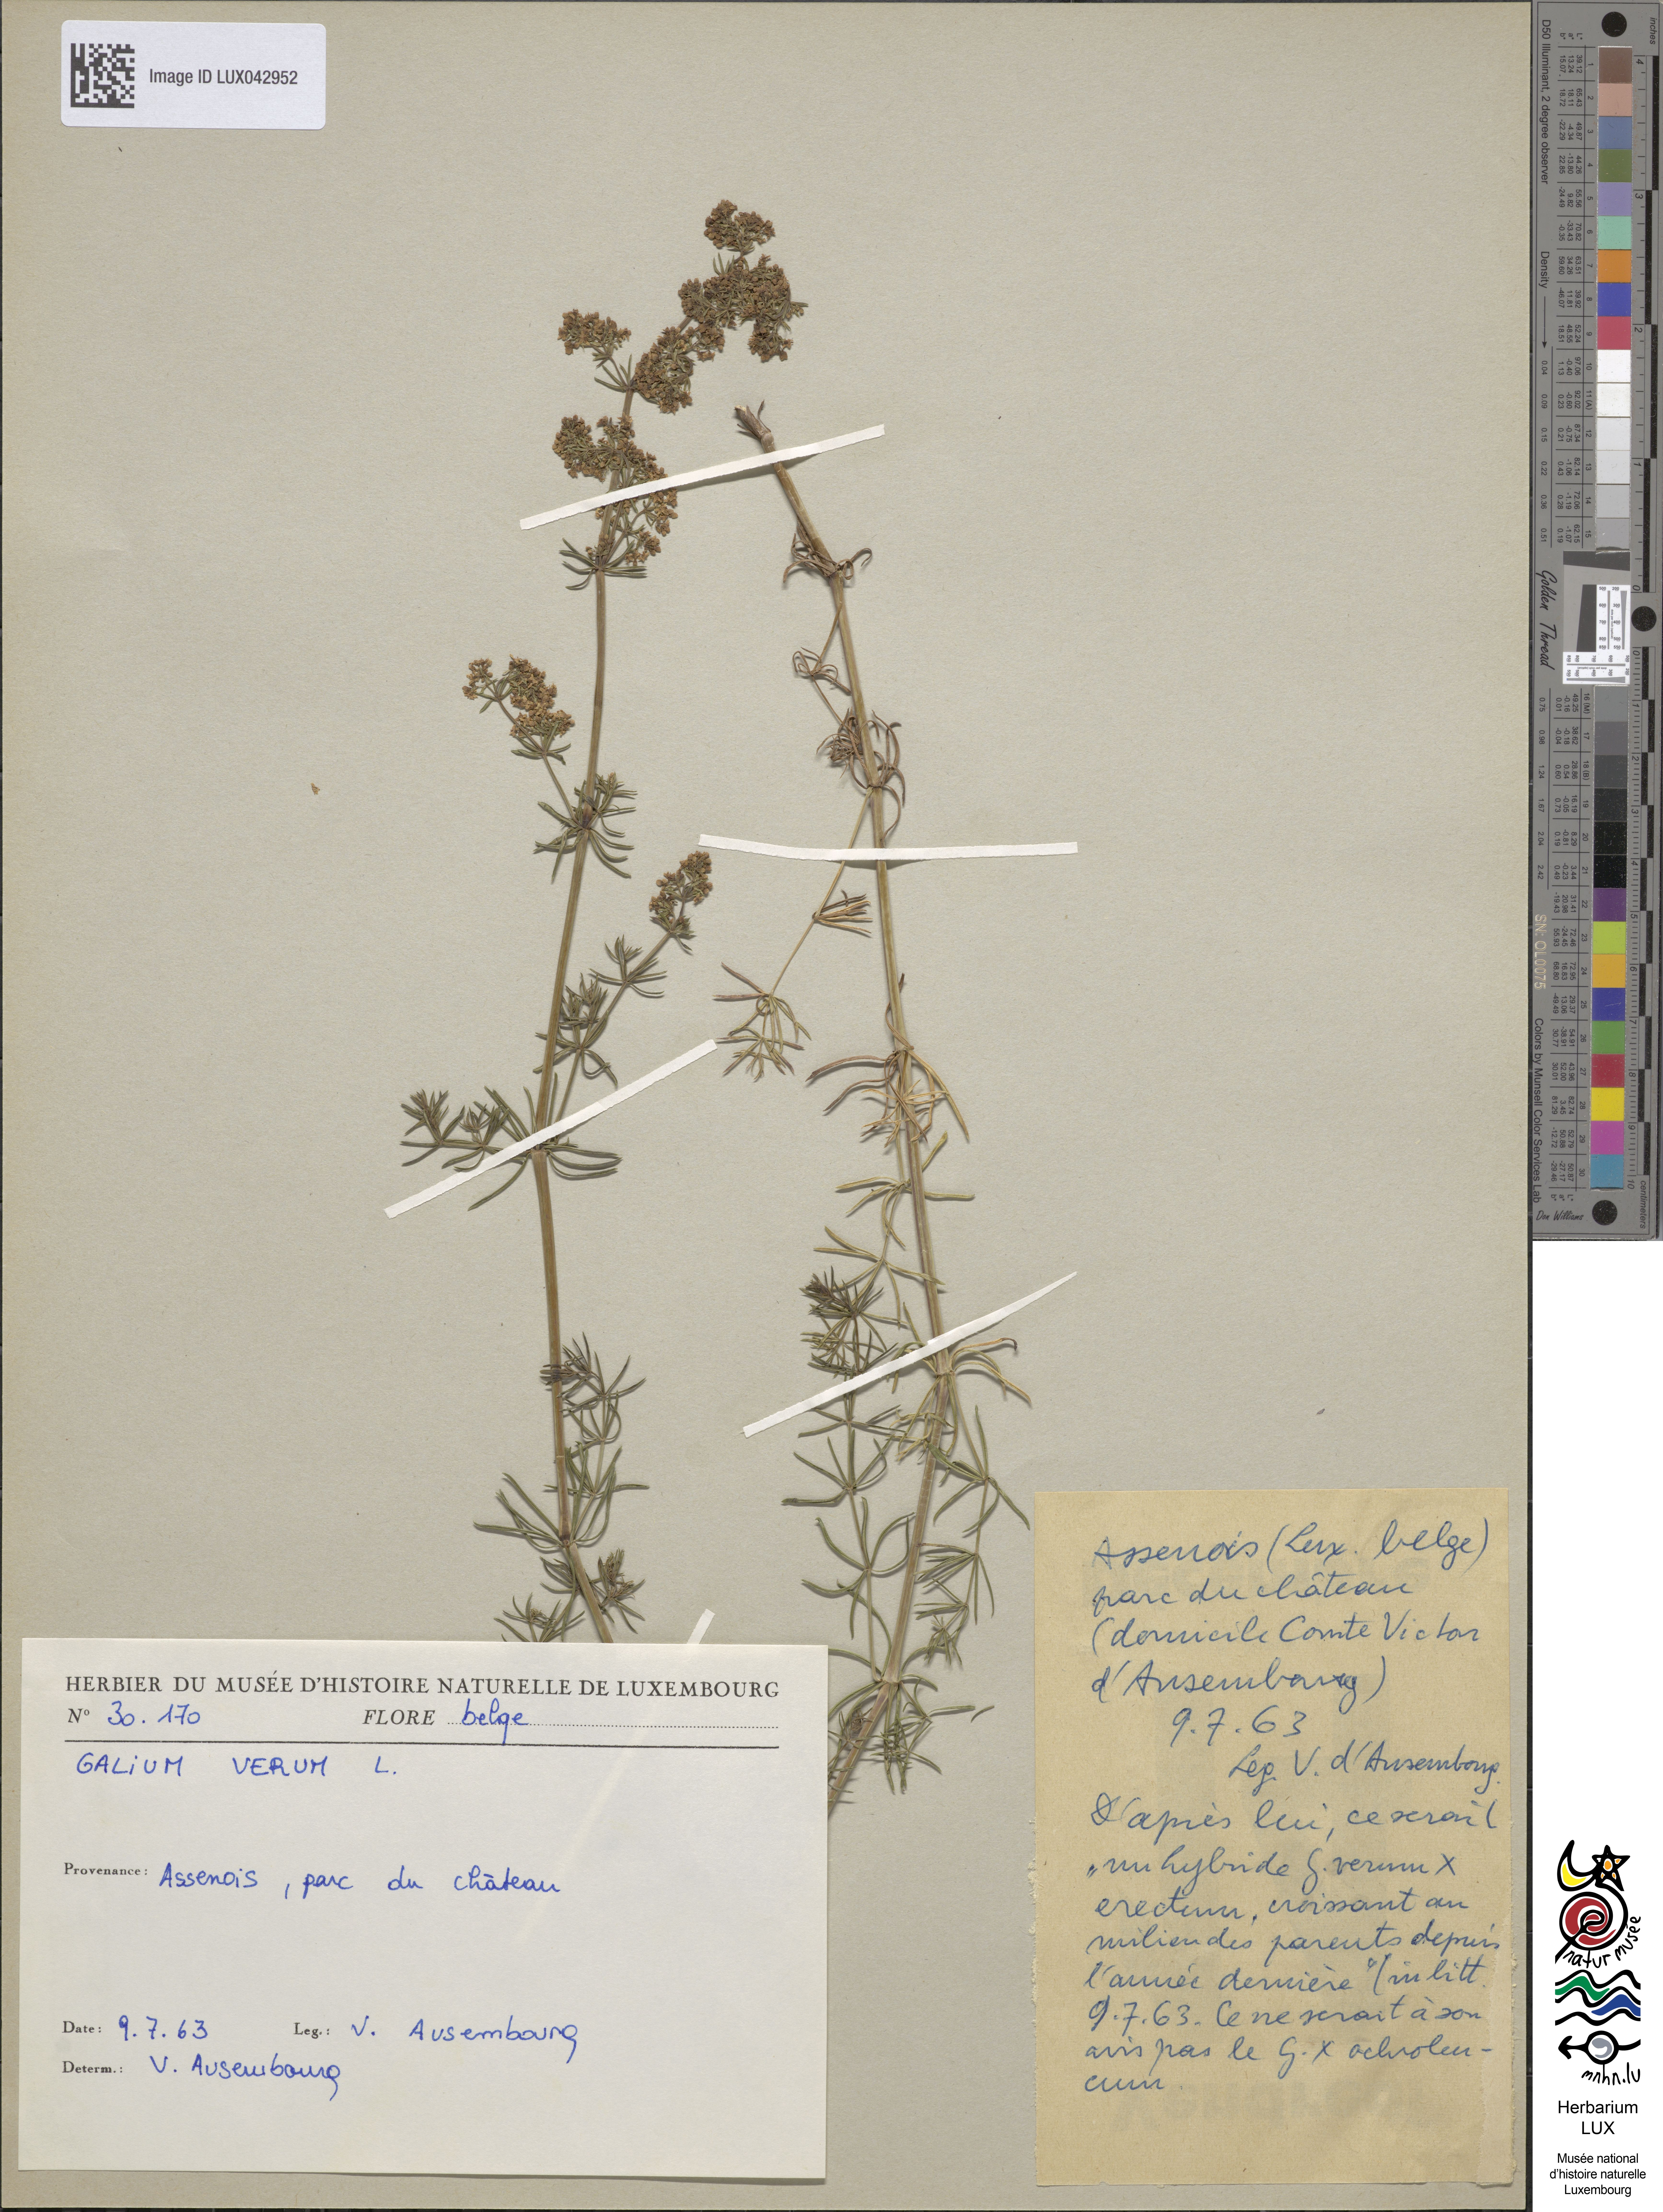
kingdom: Plantae
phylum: Tracheophyta
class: Magnoliopsida
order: Gentianales
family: Rubiaceae
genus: Galium
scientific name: Galium verum
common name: Lady's bedstraw
